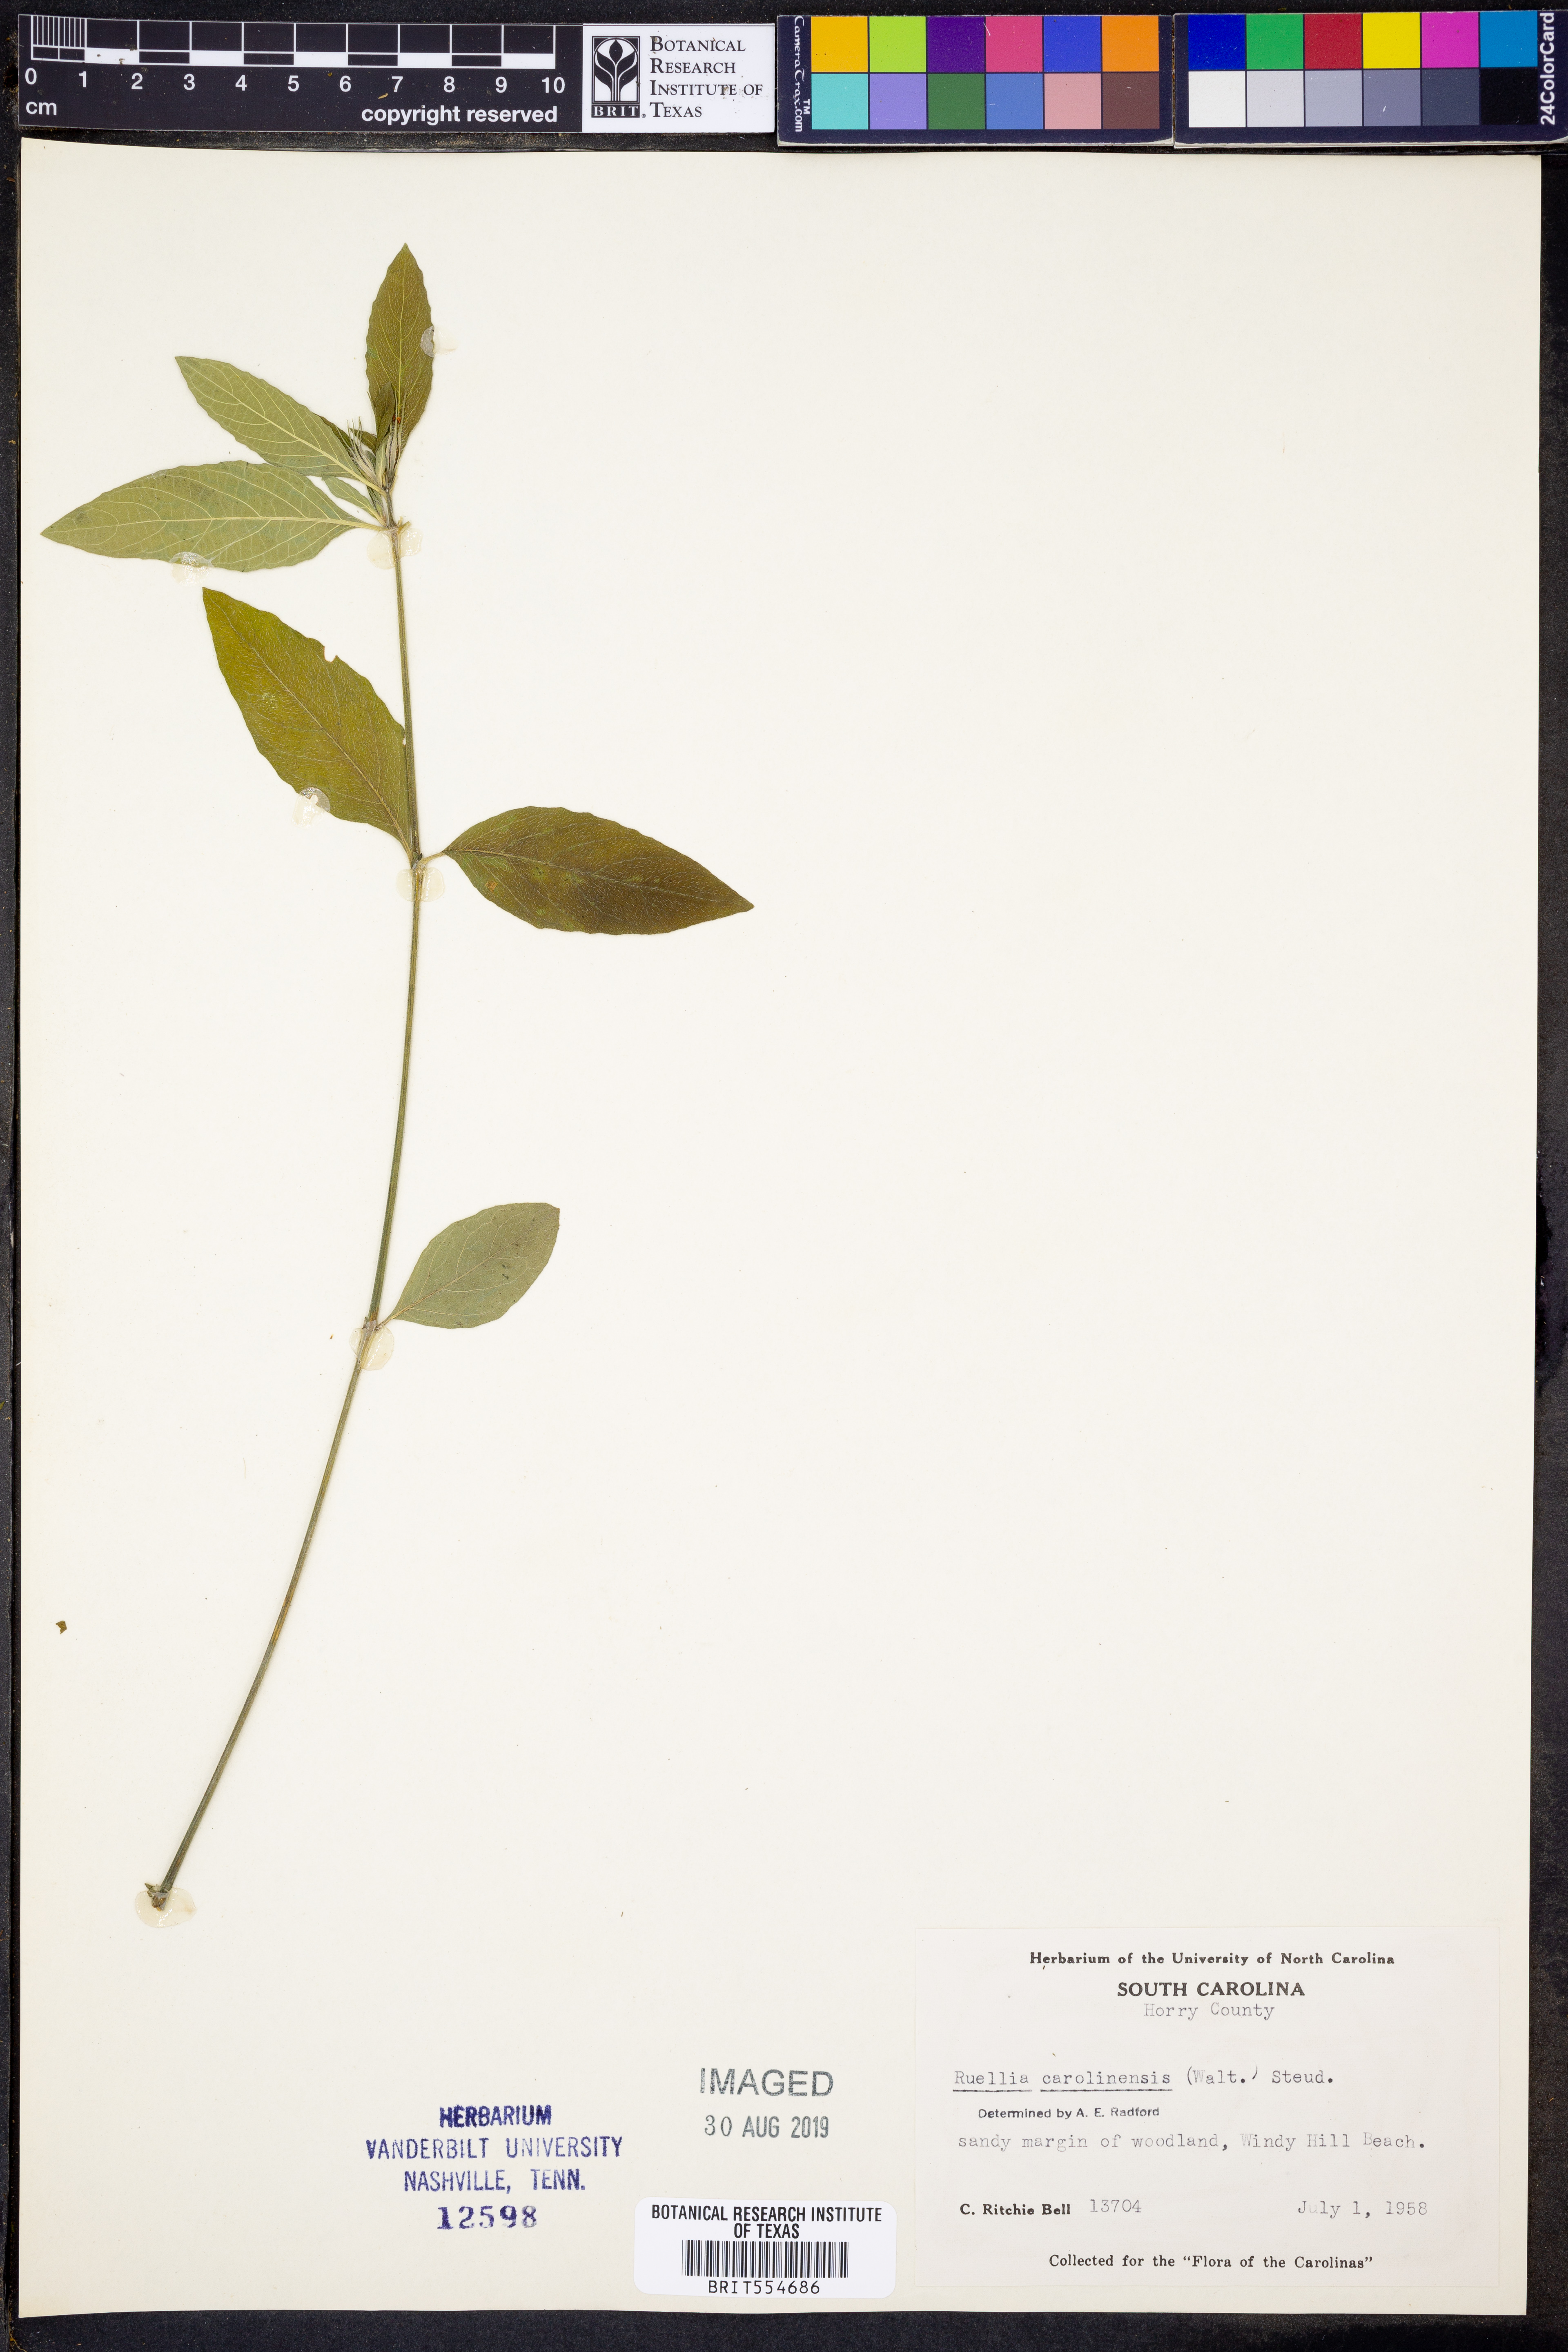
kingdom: Plantae
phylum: Tracheophyta
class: Magnoliopsida
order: Lamiales
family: Acanthaceae
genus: Ruellia
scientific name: Ruellia caroliniensis
